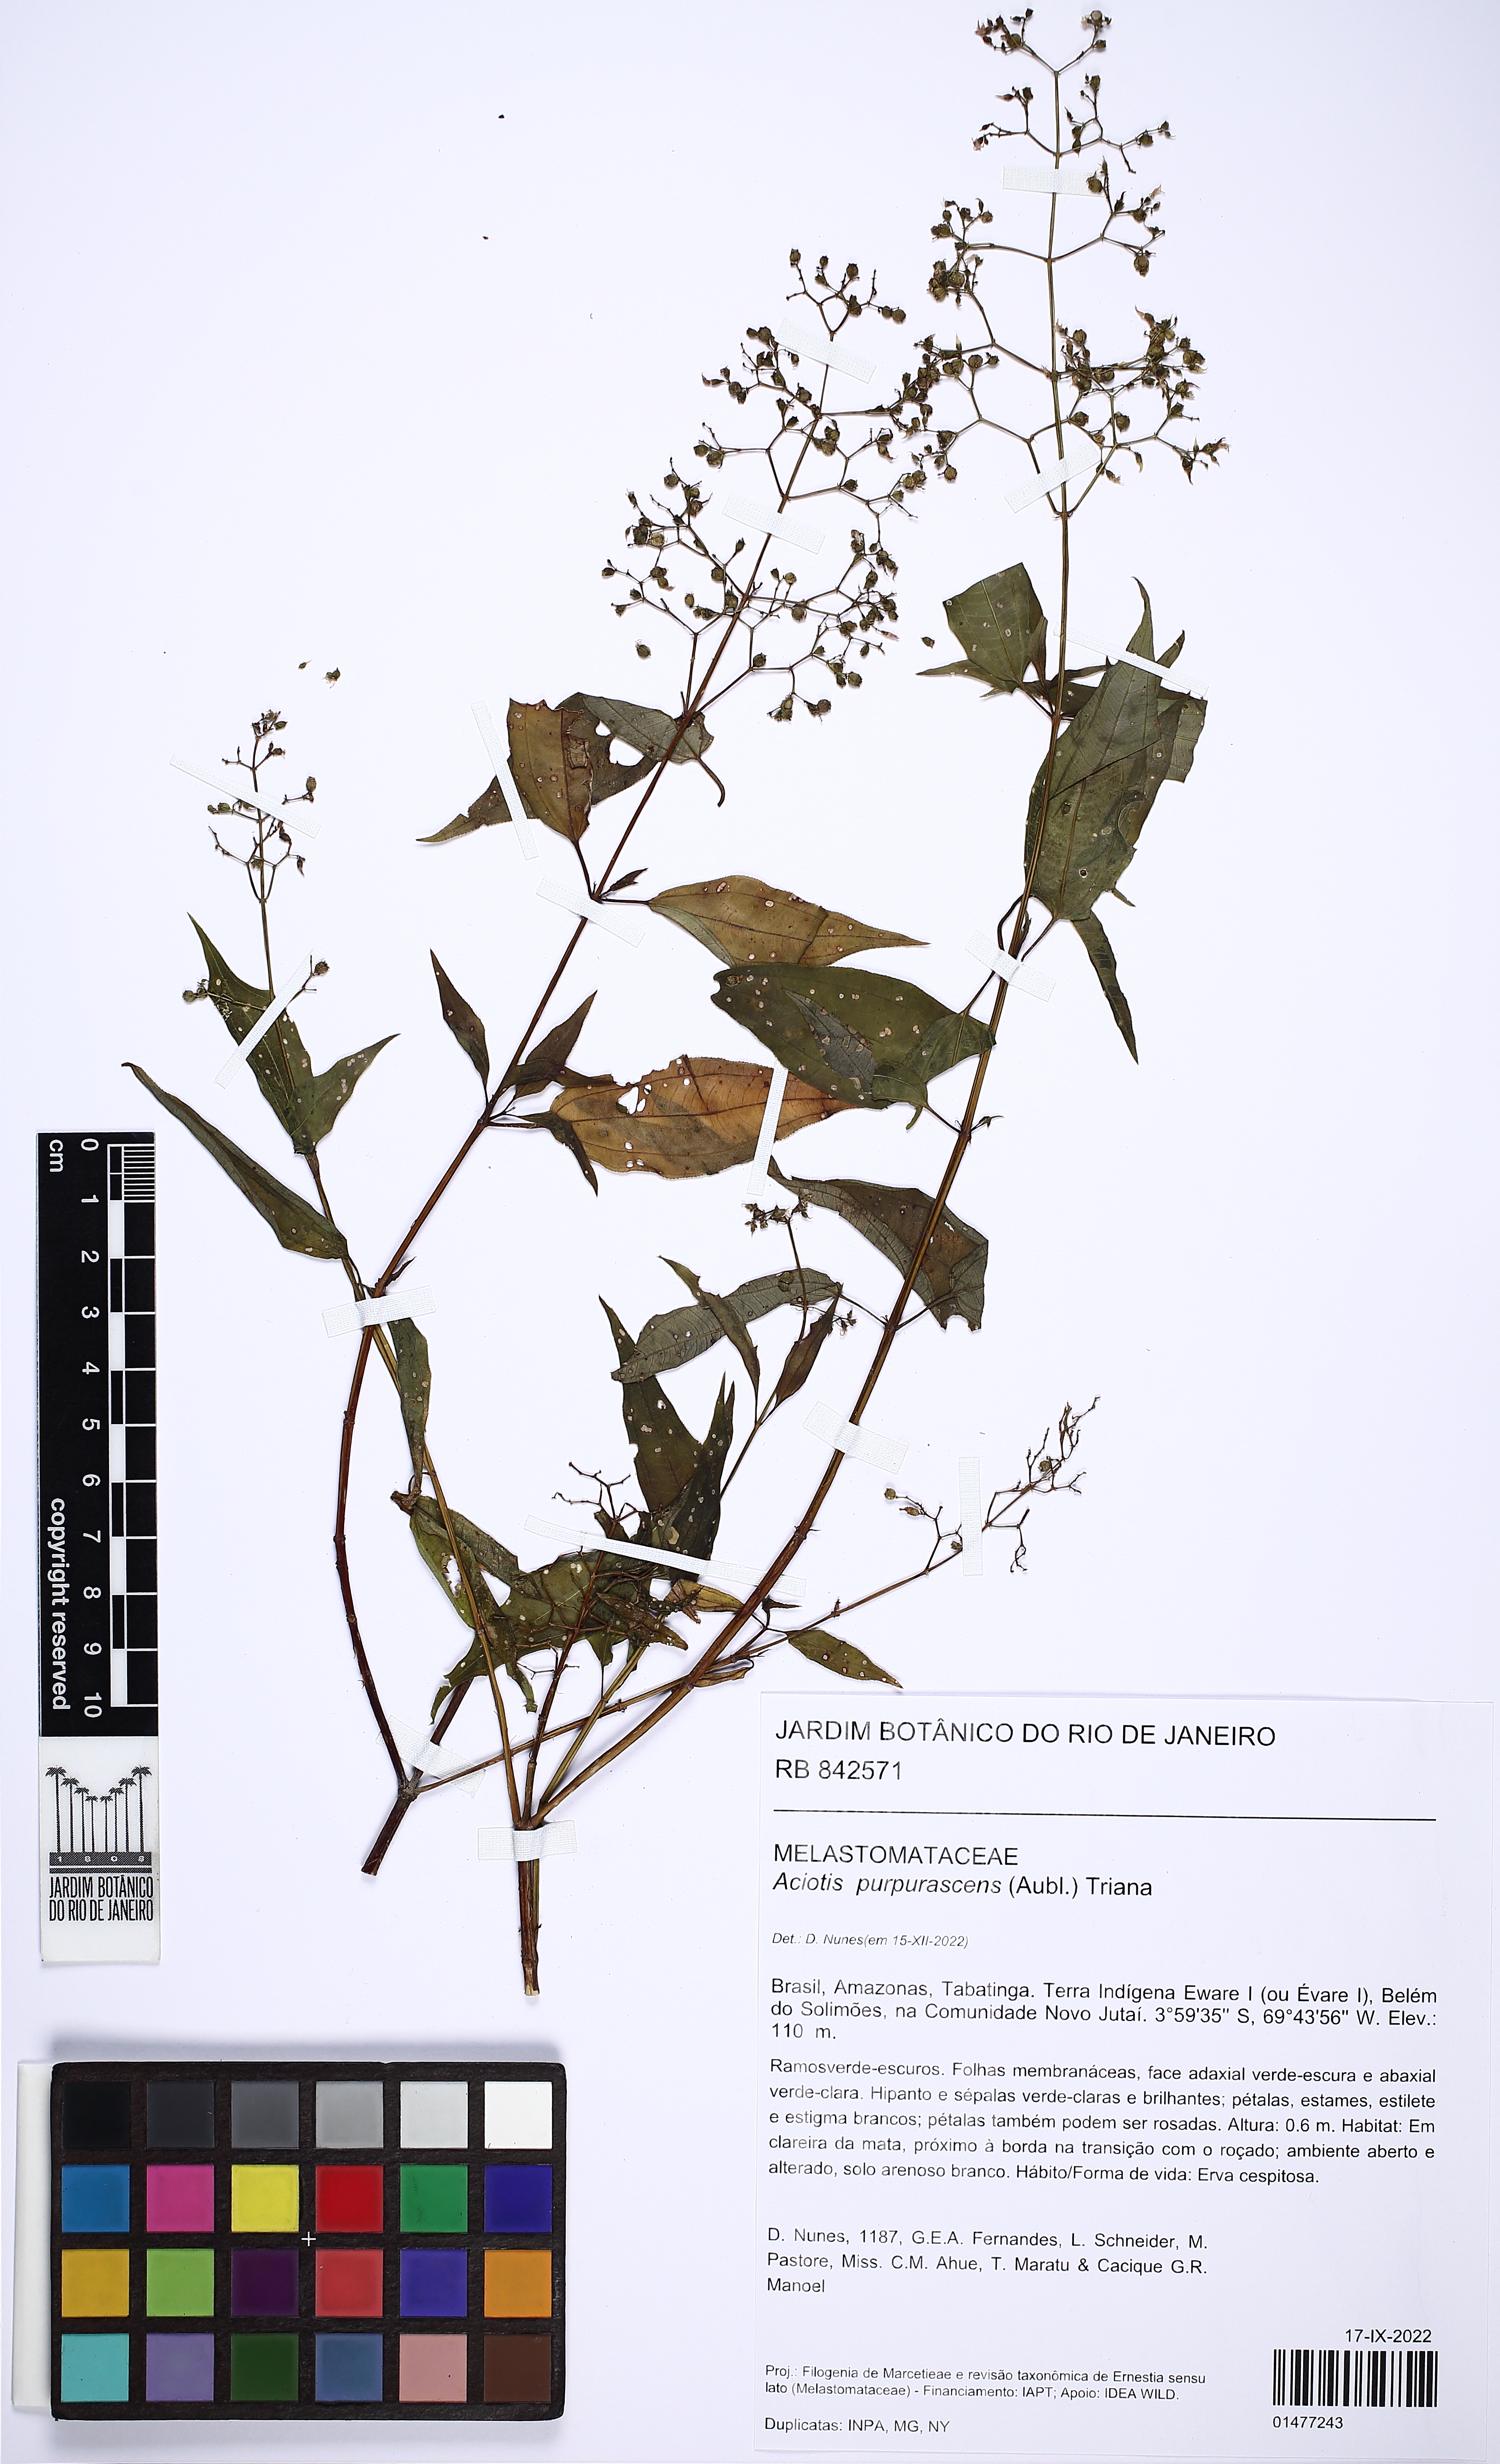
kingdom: Plantae
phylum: Tracheophyta
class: Magnoliopsida
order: Myrtales
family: Melastomataceae
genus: Aciotis
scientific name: Aciotis purpurascens
